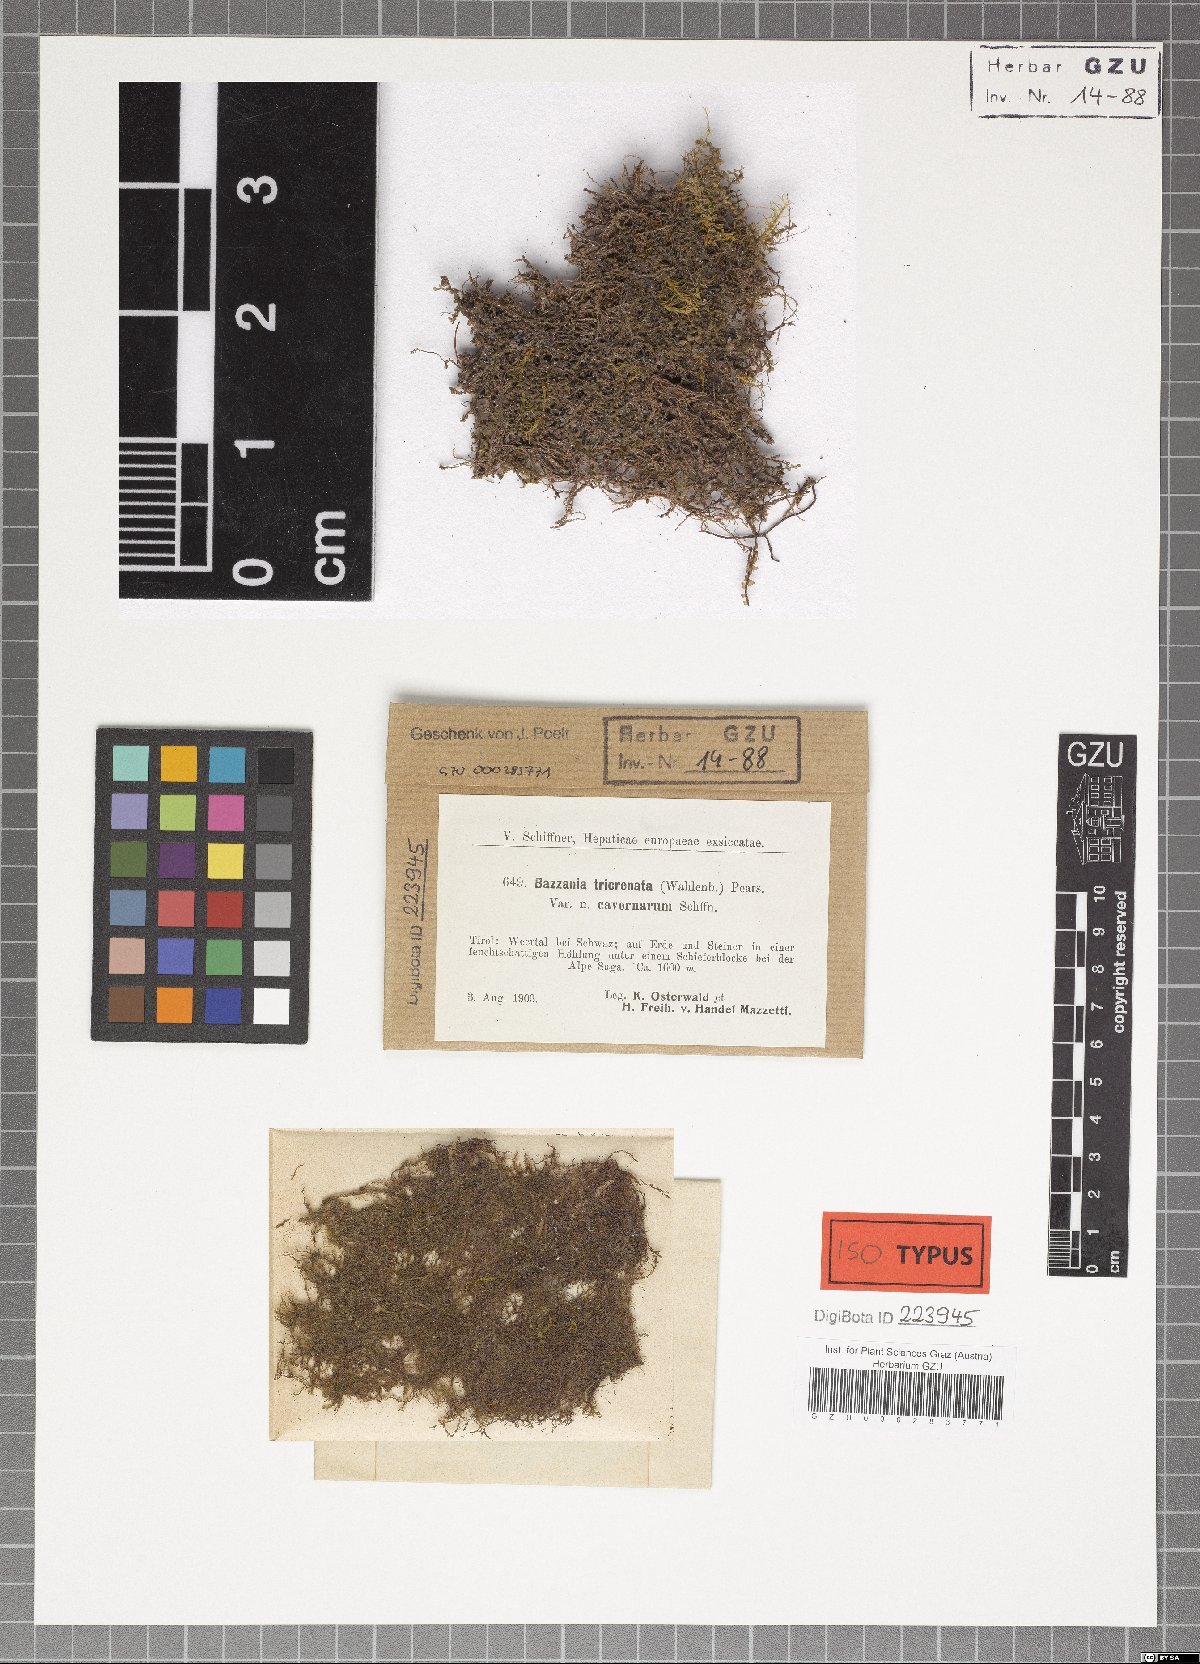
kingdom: Plantae
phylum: Marchantiophyta
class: Jungermanniopsida
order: Jungermanniales
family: Lepidoziaceae
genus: Bazzania
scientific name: Bazzania tricrenata
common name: Lesser whipwort
